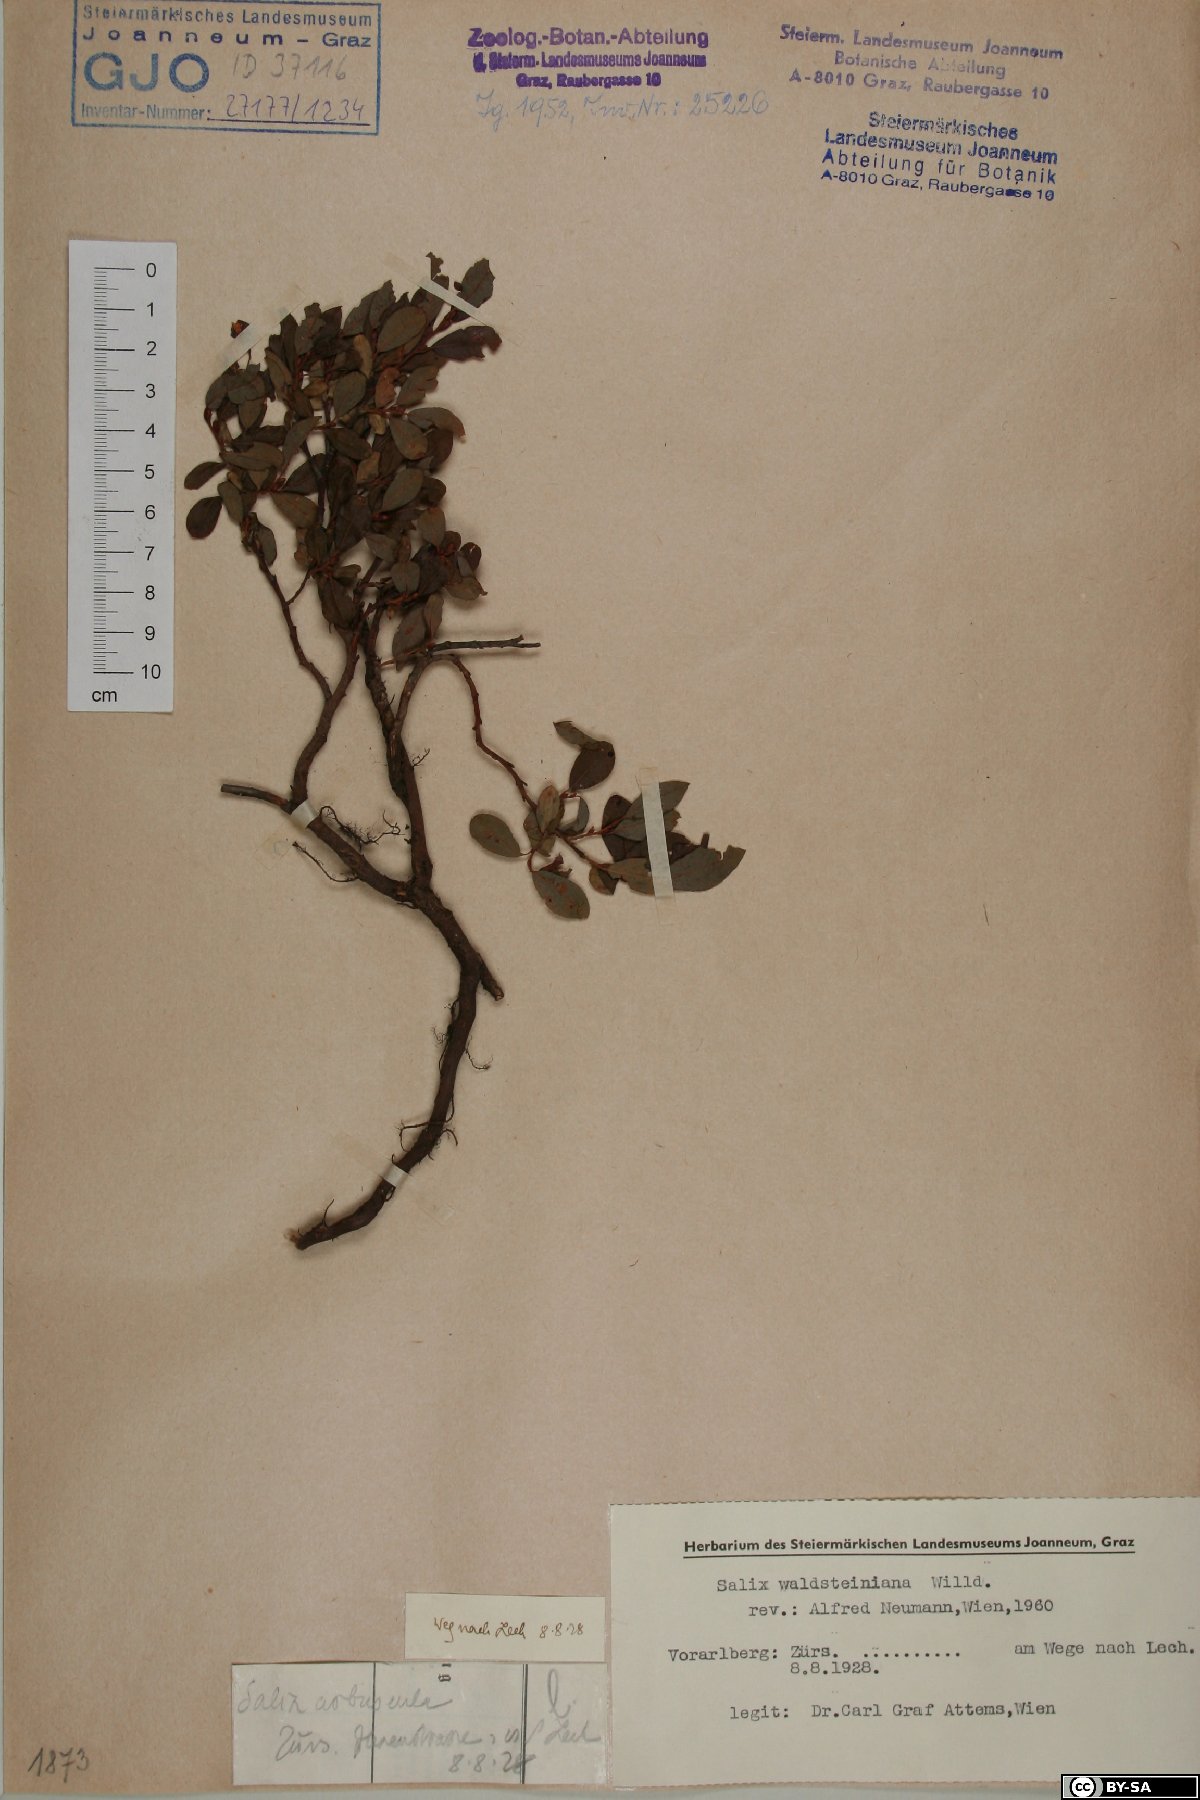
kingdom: Plantae
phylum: Tracheophyta
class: Magnoliopsida
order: Malpighiales
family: Salicaceae
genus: Salix
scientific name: Salix waldsteiniana
